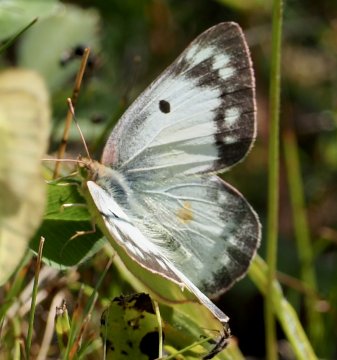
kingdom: Animalia
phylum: Arthropoda
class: Insecta
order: Lepidoptera
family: Pieridae
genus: Colias
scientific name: Colias philodice
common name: Clouded Sulphur
